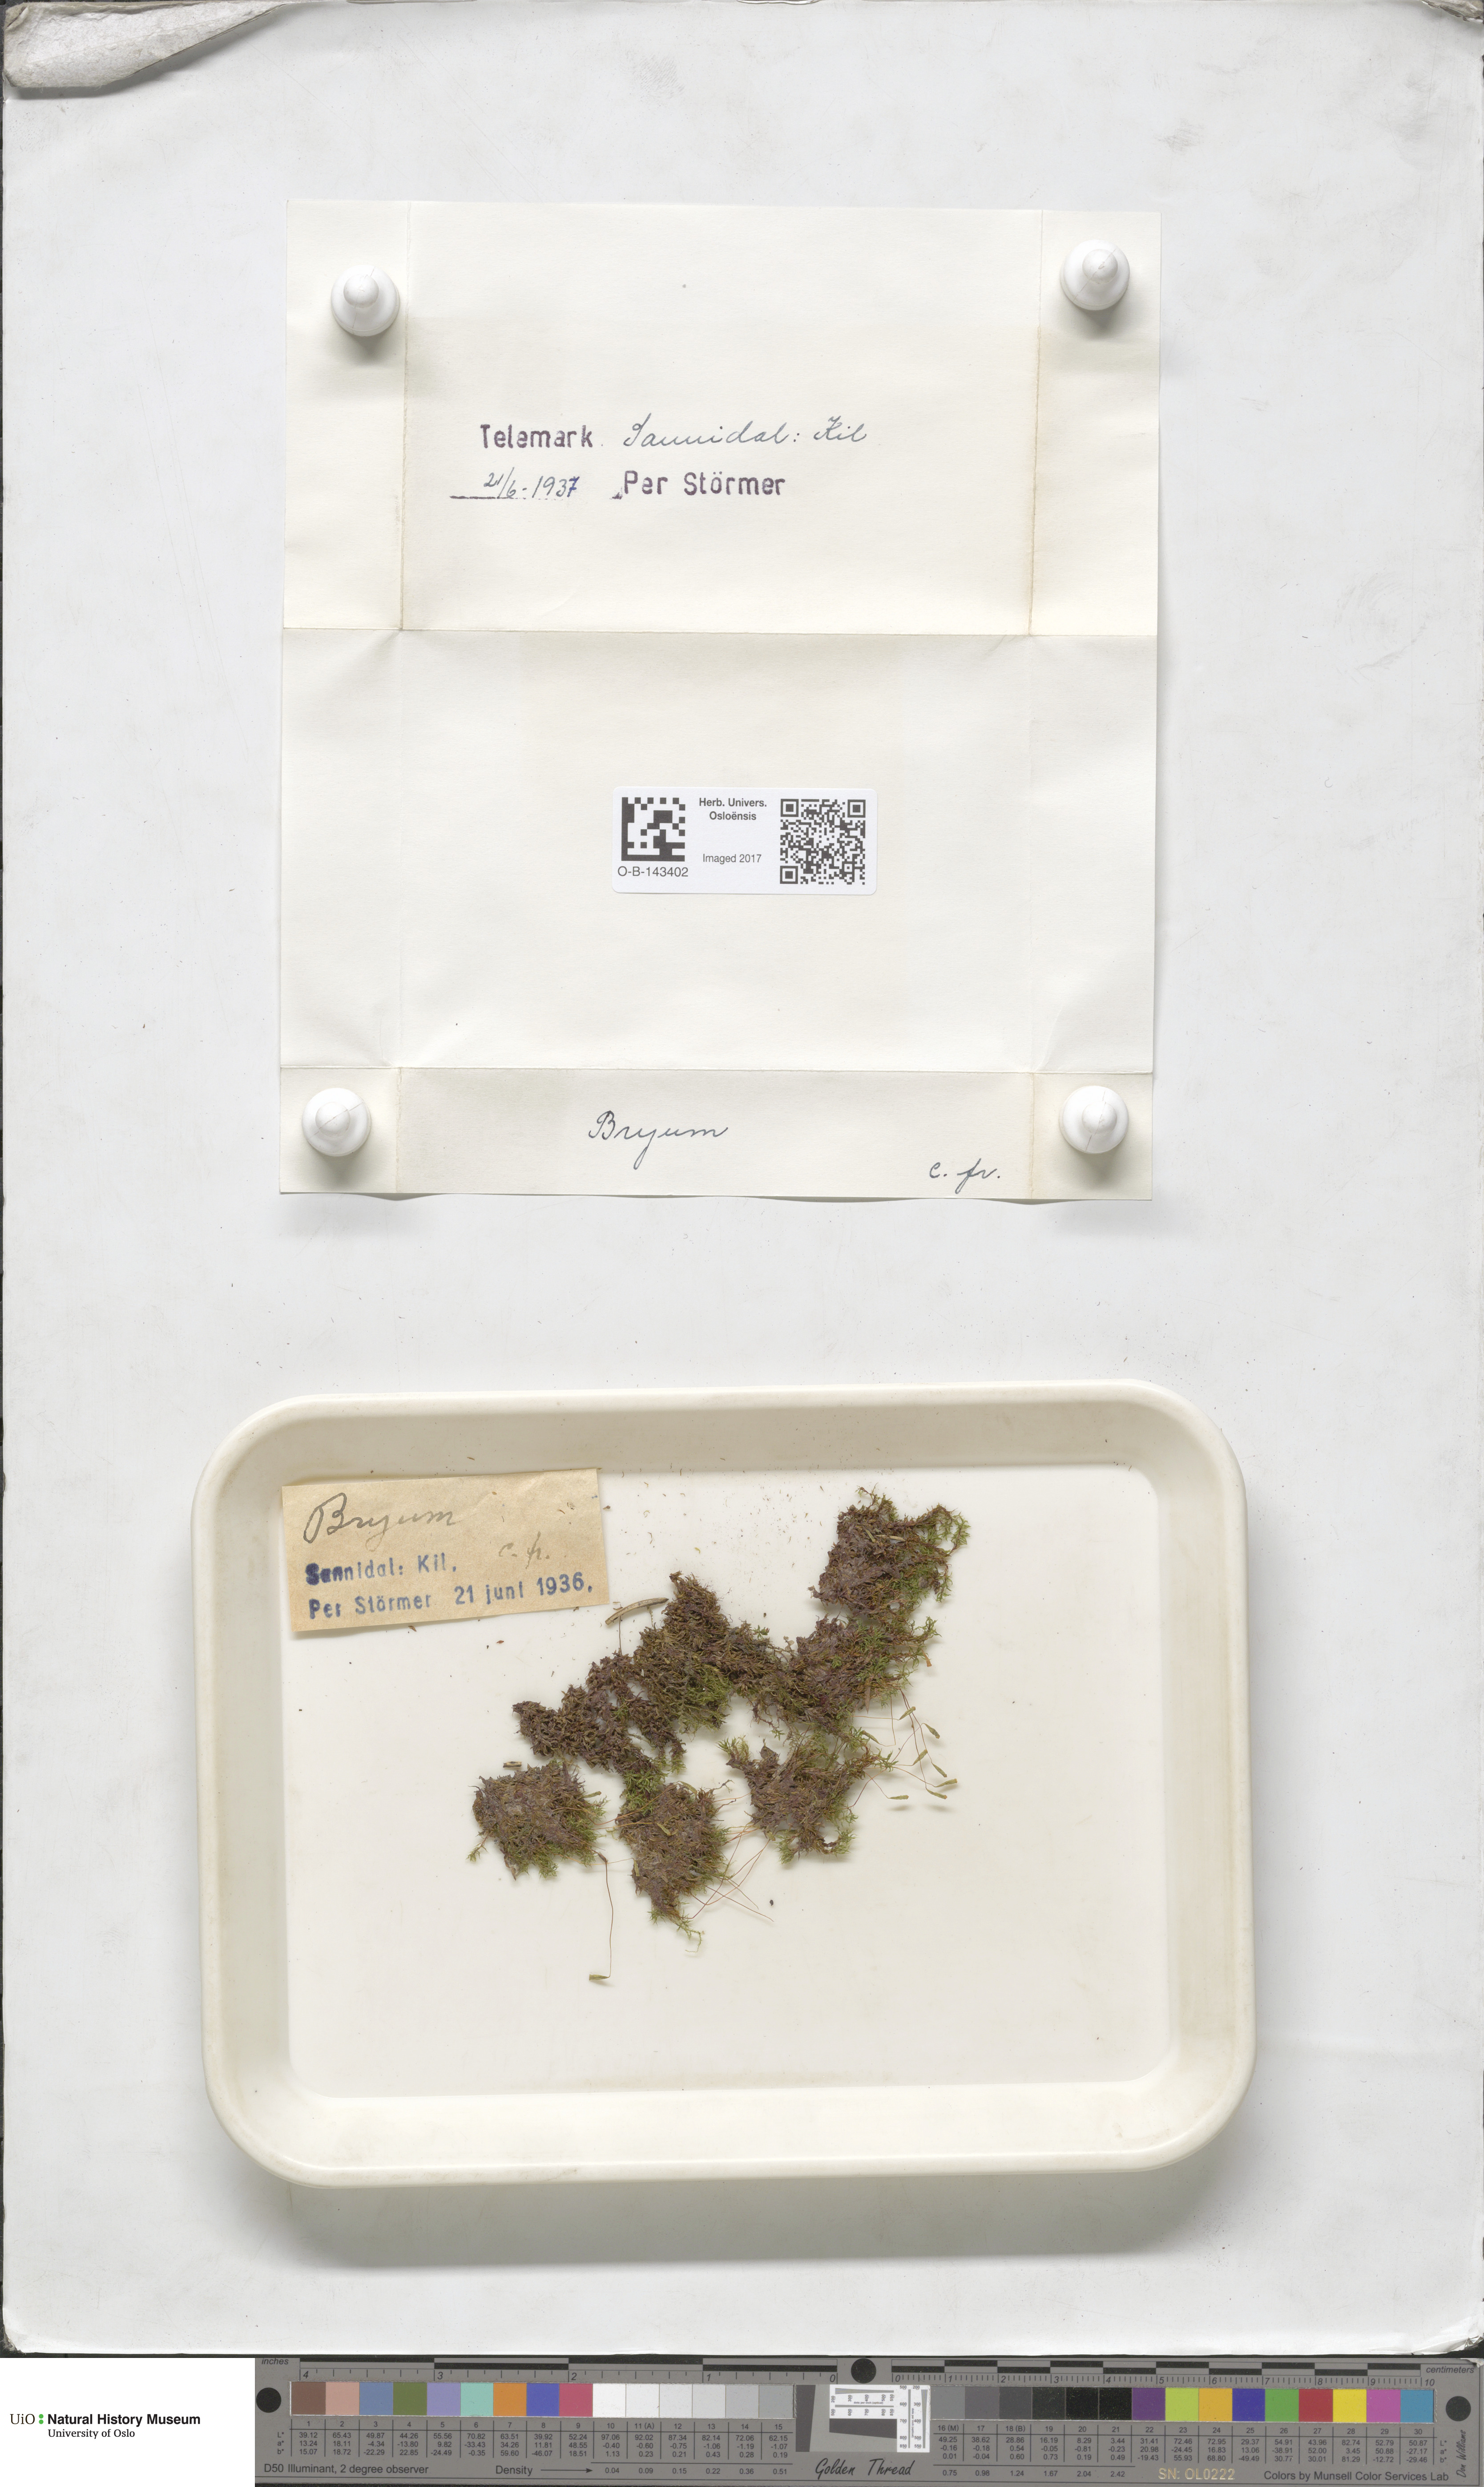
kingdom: Plantae
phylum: Bryophyta
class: Bryopsida
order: Bryales
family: Bryaceae
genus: Bryum
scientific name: Bryum
